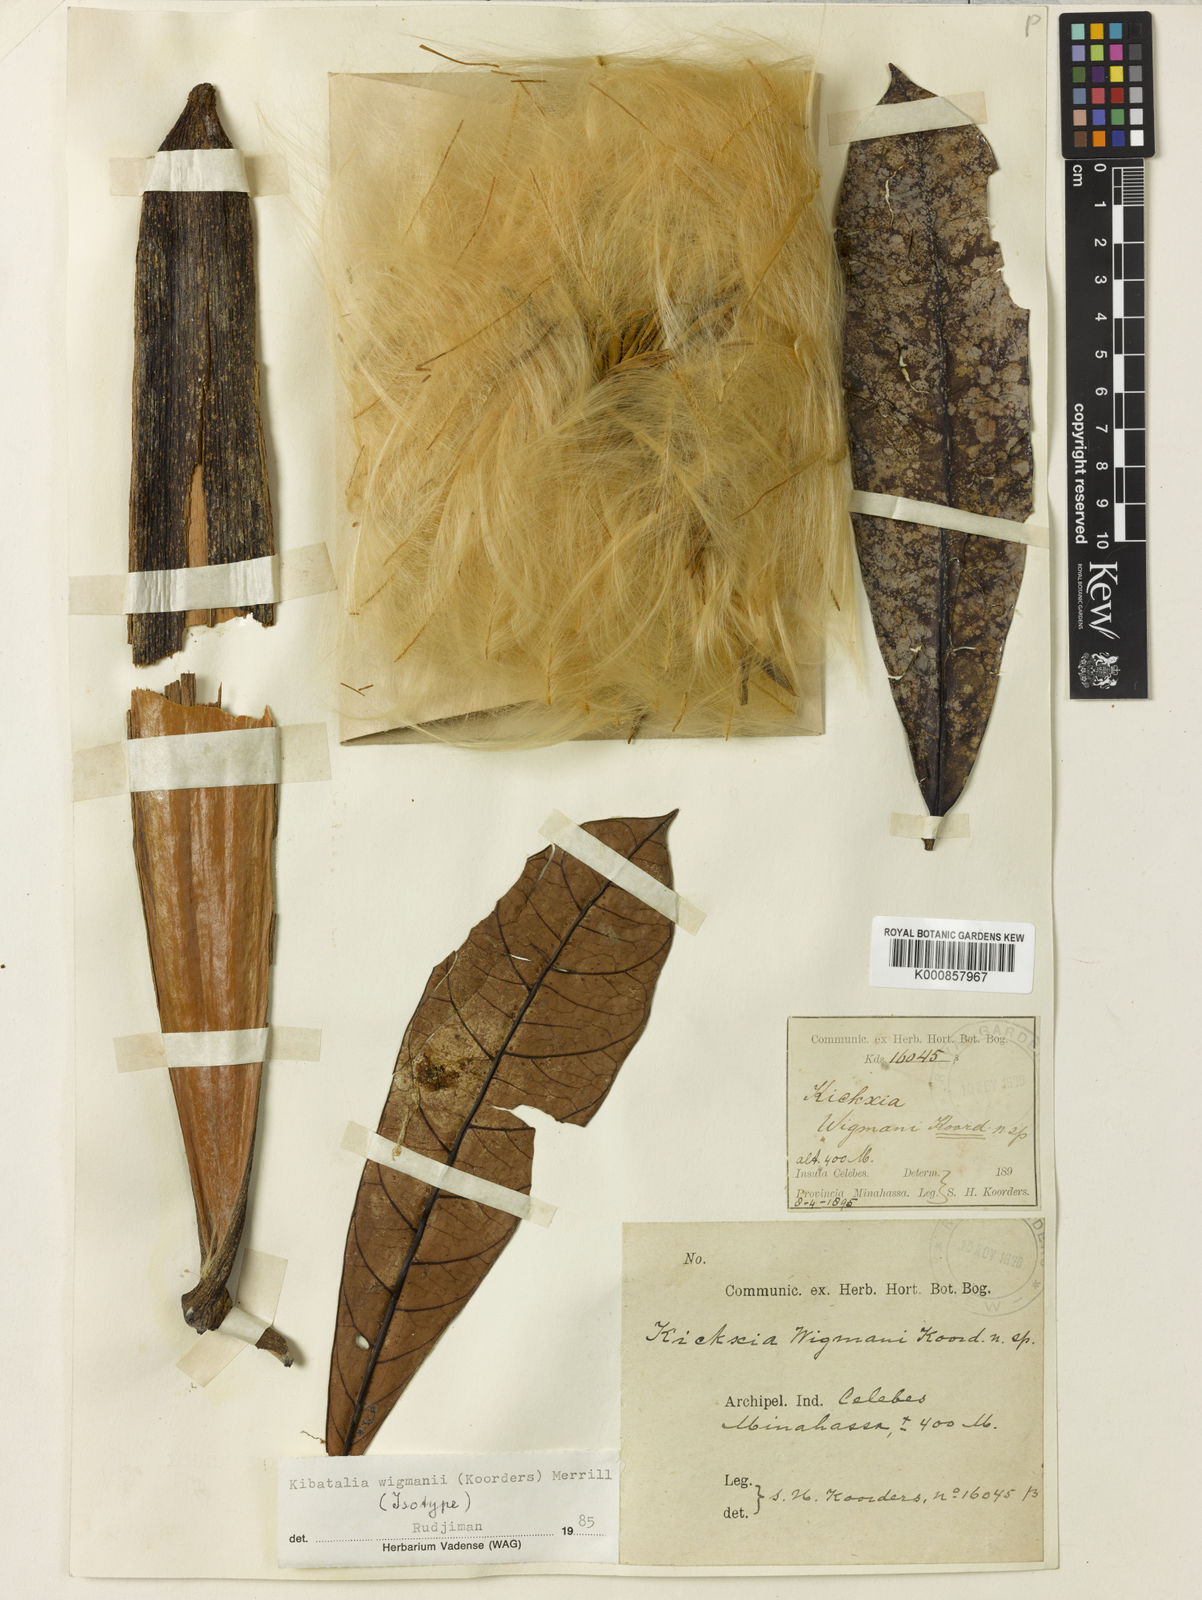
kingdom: Plantae
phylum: Tracheophyta
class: Magnoliopsida
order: Gentianales
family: Apocynaceae
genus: Kibatalia
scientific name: Kibatalia wigmanii
